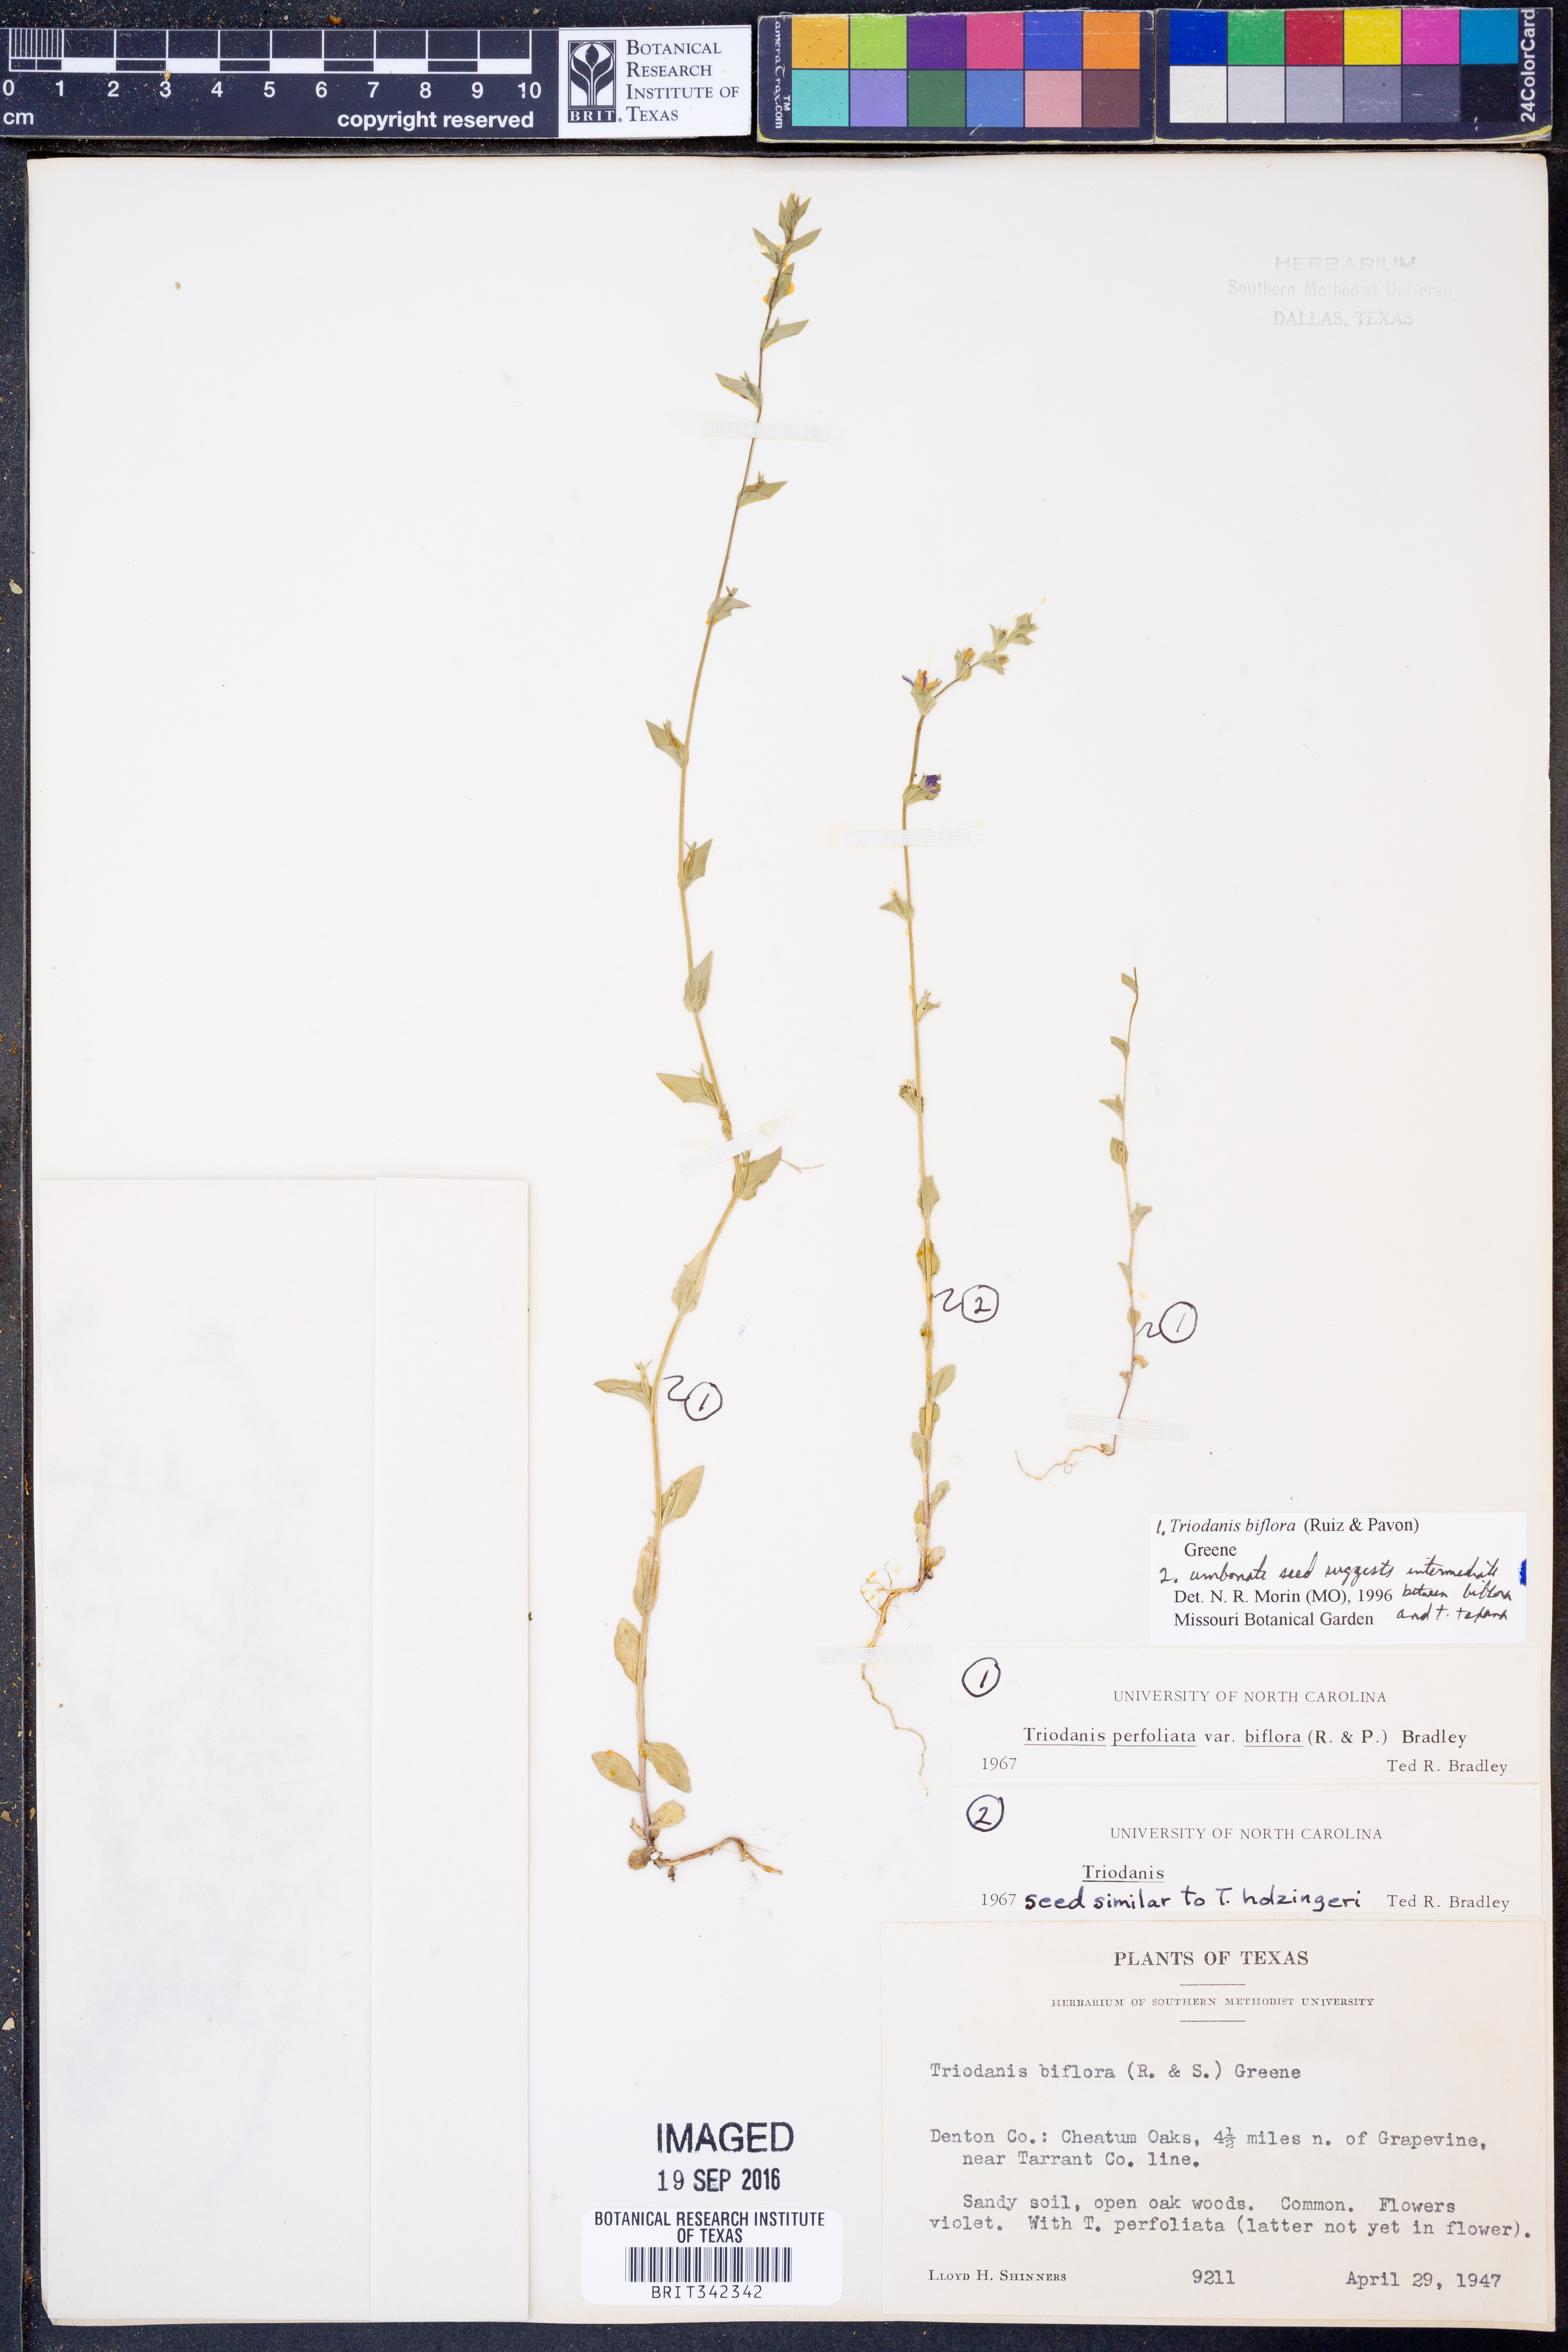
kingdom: Plantae
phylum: Tracheophyta
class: Magnoliopsida
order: Asterales
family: Campanulaceae
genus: Triodanis
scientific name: Triodanis perfoliata
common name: Clasping venus' looking-glass
